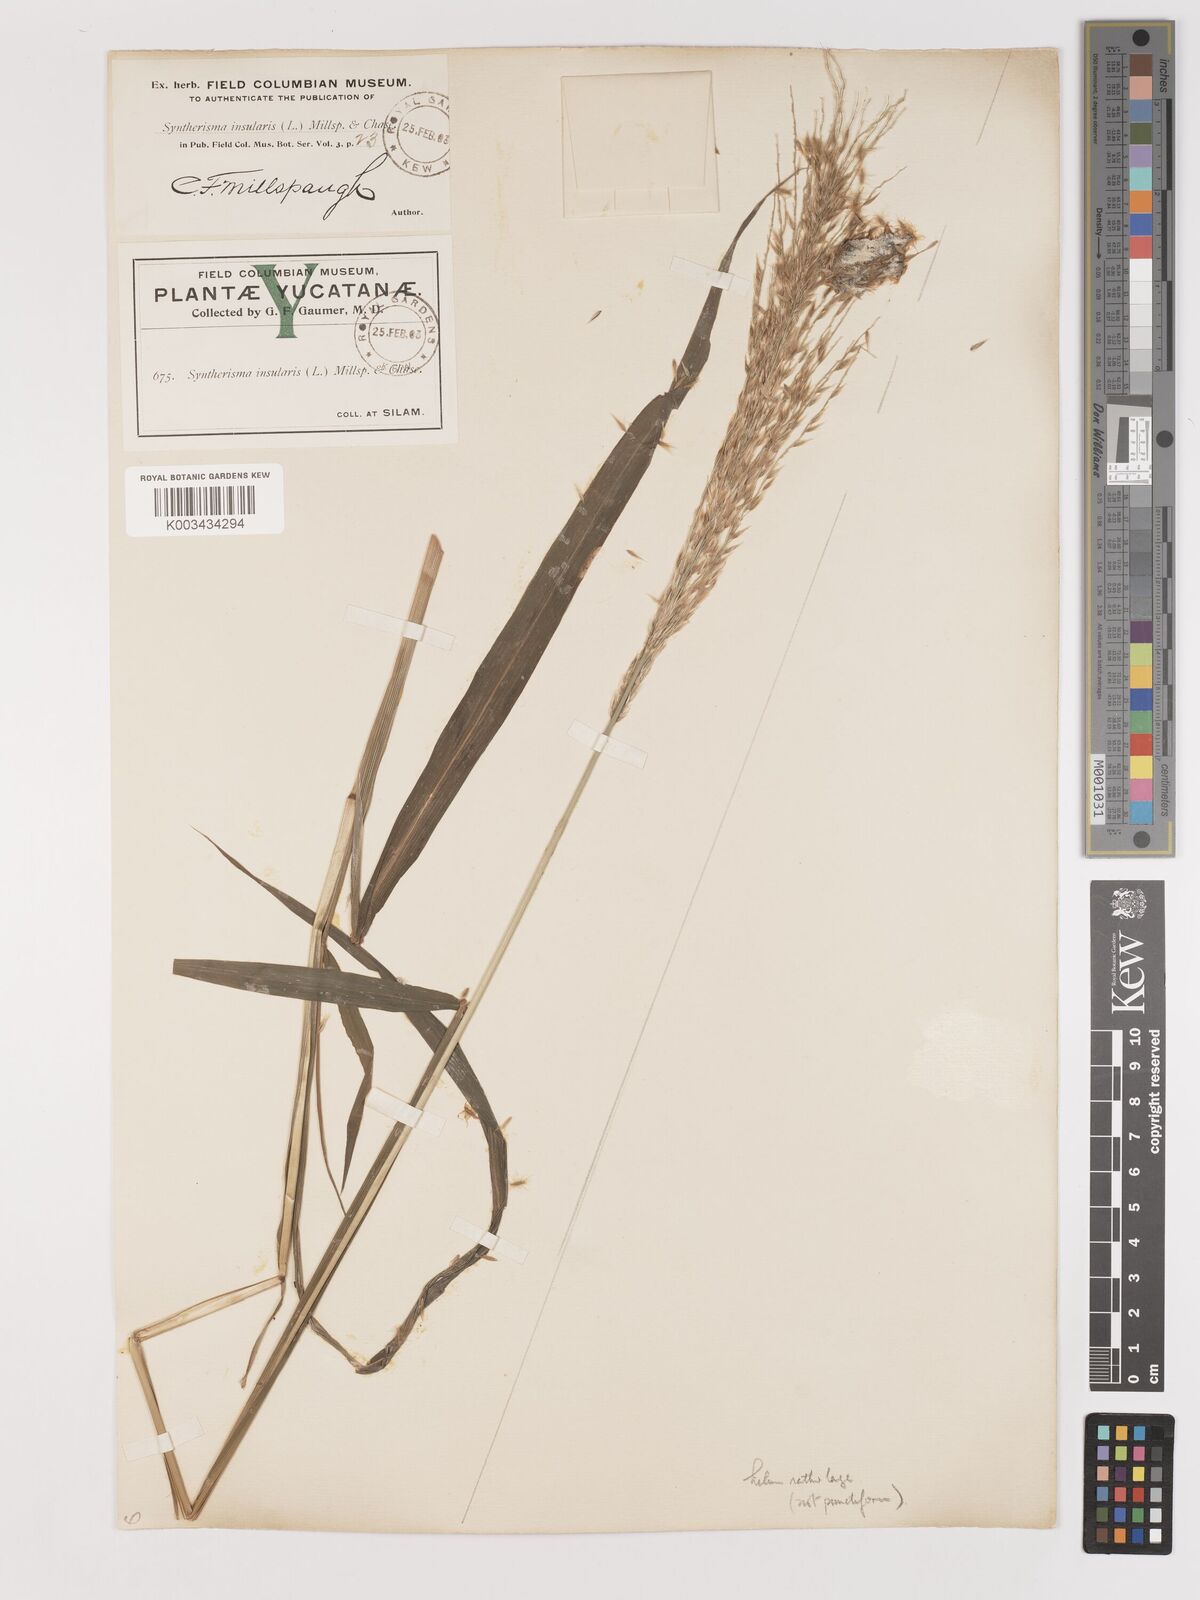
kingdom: Plantae
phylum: Tracheophyta
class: Liliopsida
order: Poales
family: Poaceae
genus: Digitaria
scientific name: Digitaria insularis
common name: Sourgrass
